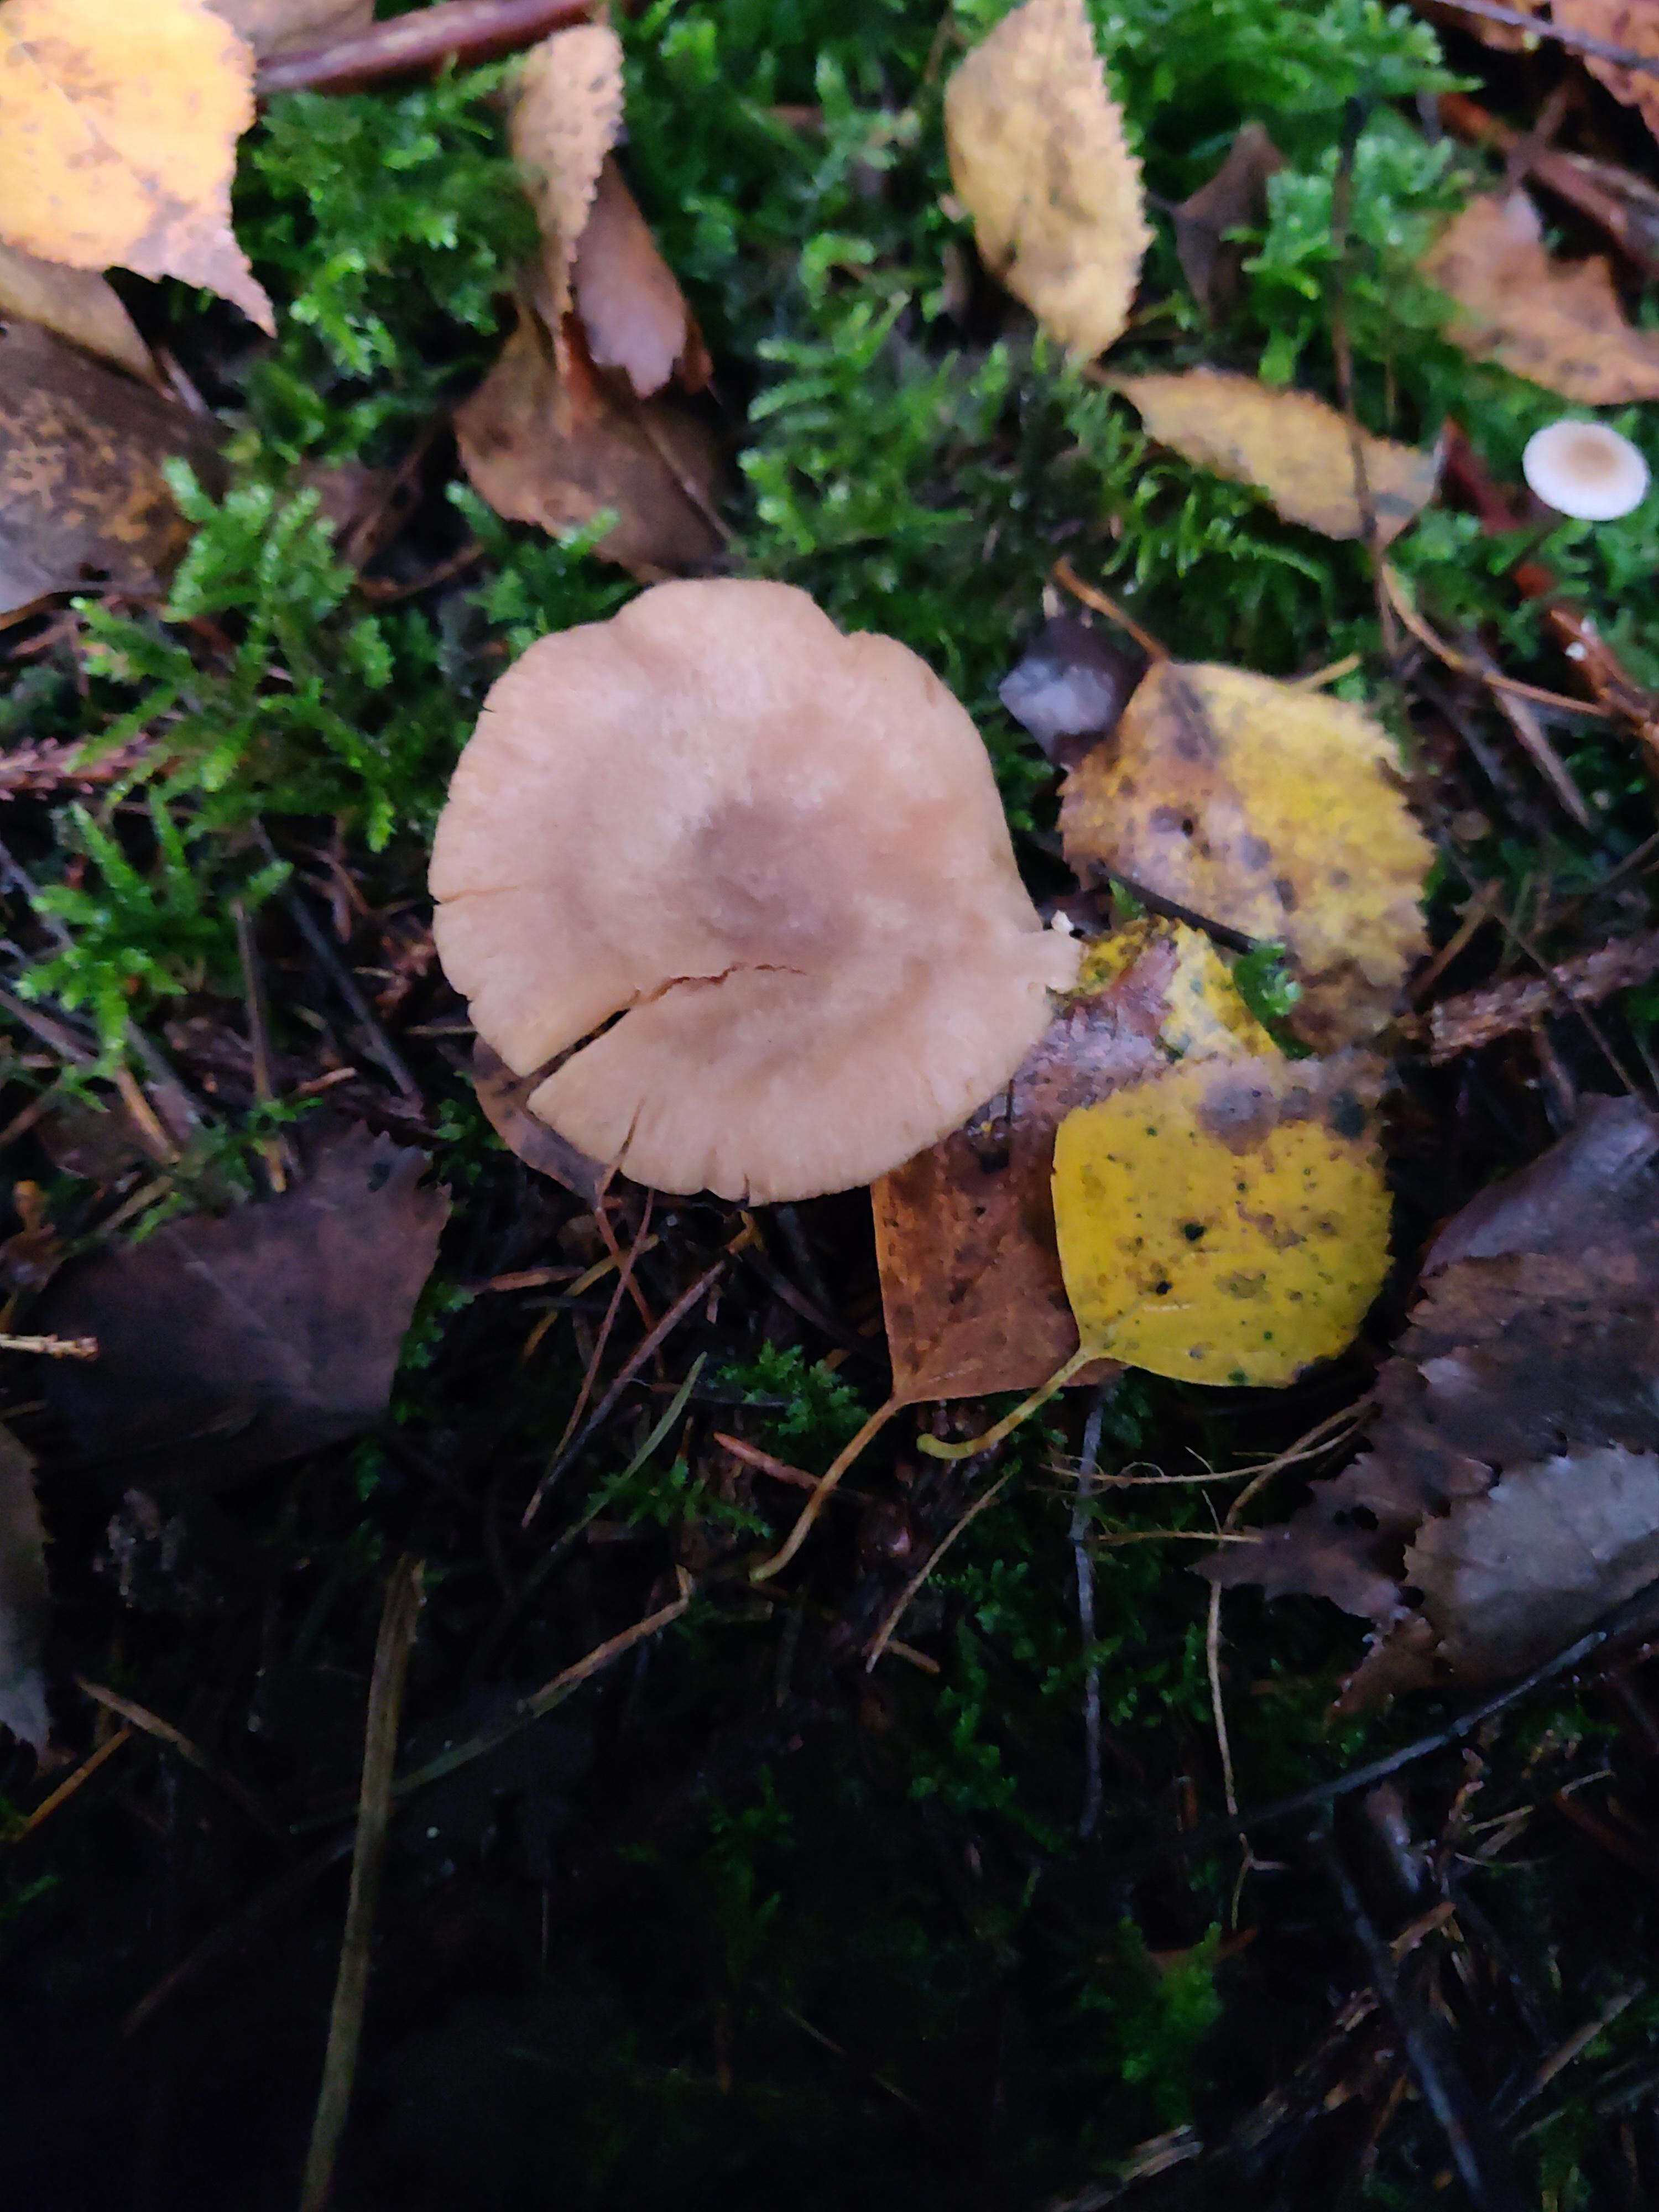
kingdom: Fungi
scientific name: Fungi
